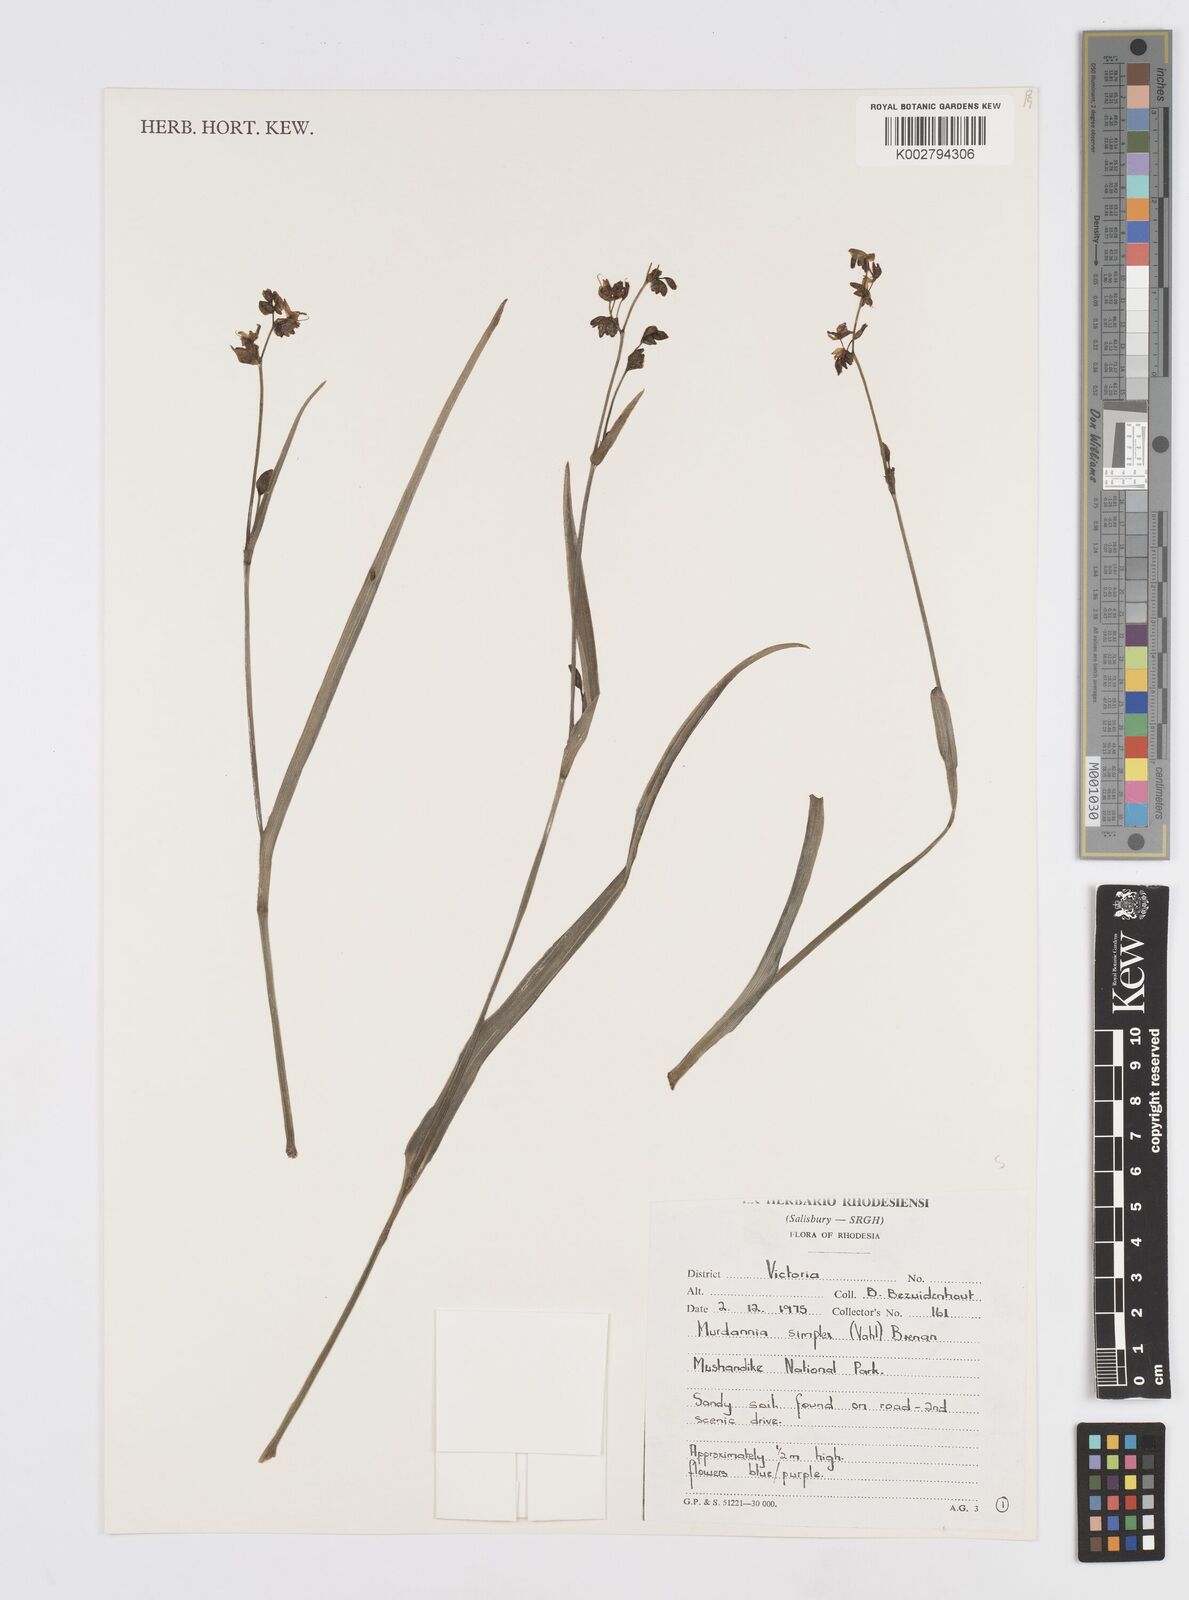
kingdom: Plantae
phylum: Tracheophyta
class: Liliopsida
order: Commelinales
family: Commelinaceae
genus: Murdannia
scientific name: Murdannia simplex
